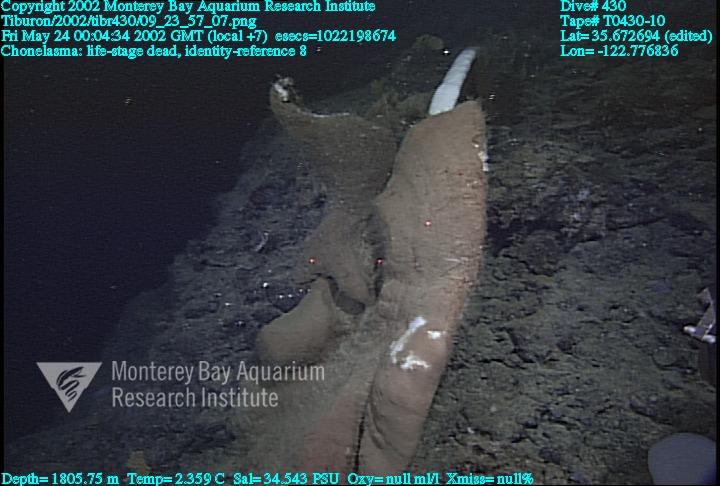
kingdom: Animalia
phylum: Porifera
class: Hexactinellida
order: Sceptrulophora
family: Euretidae
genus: Chonelasma
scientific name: Chonelasma
